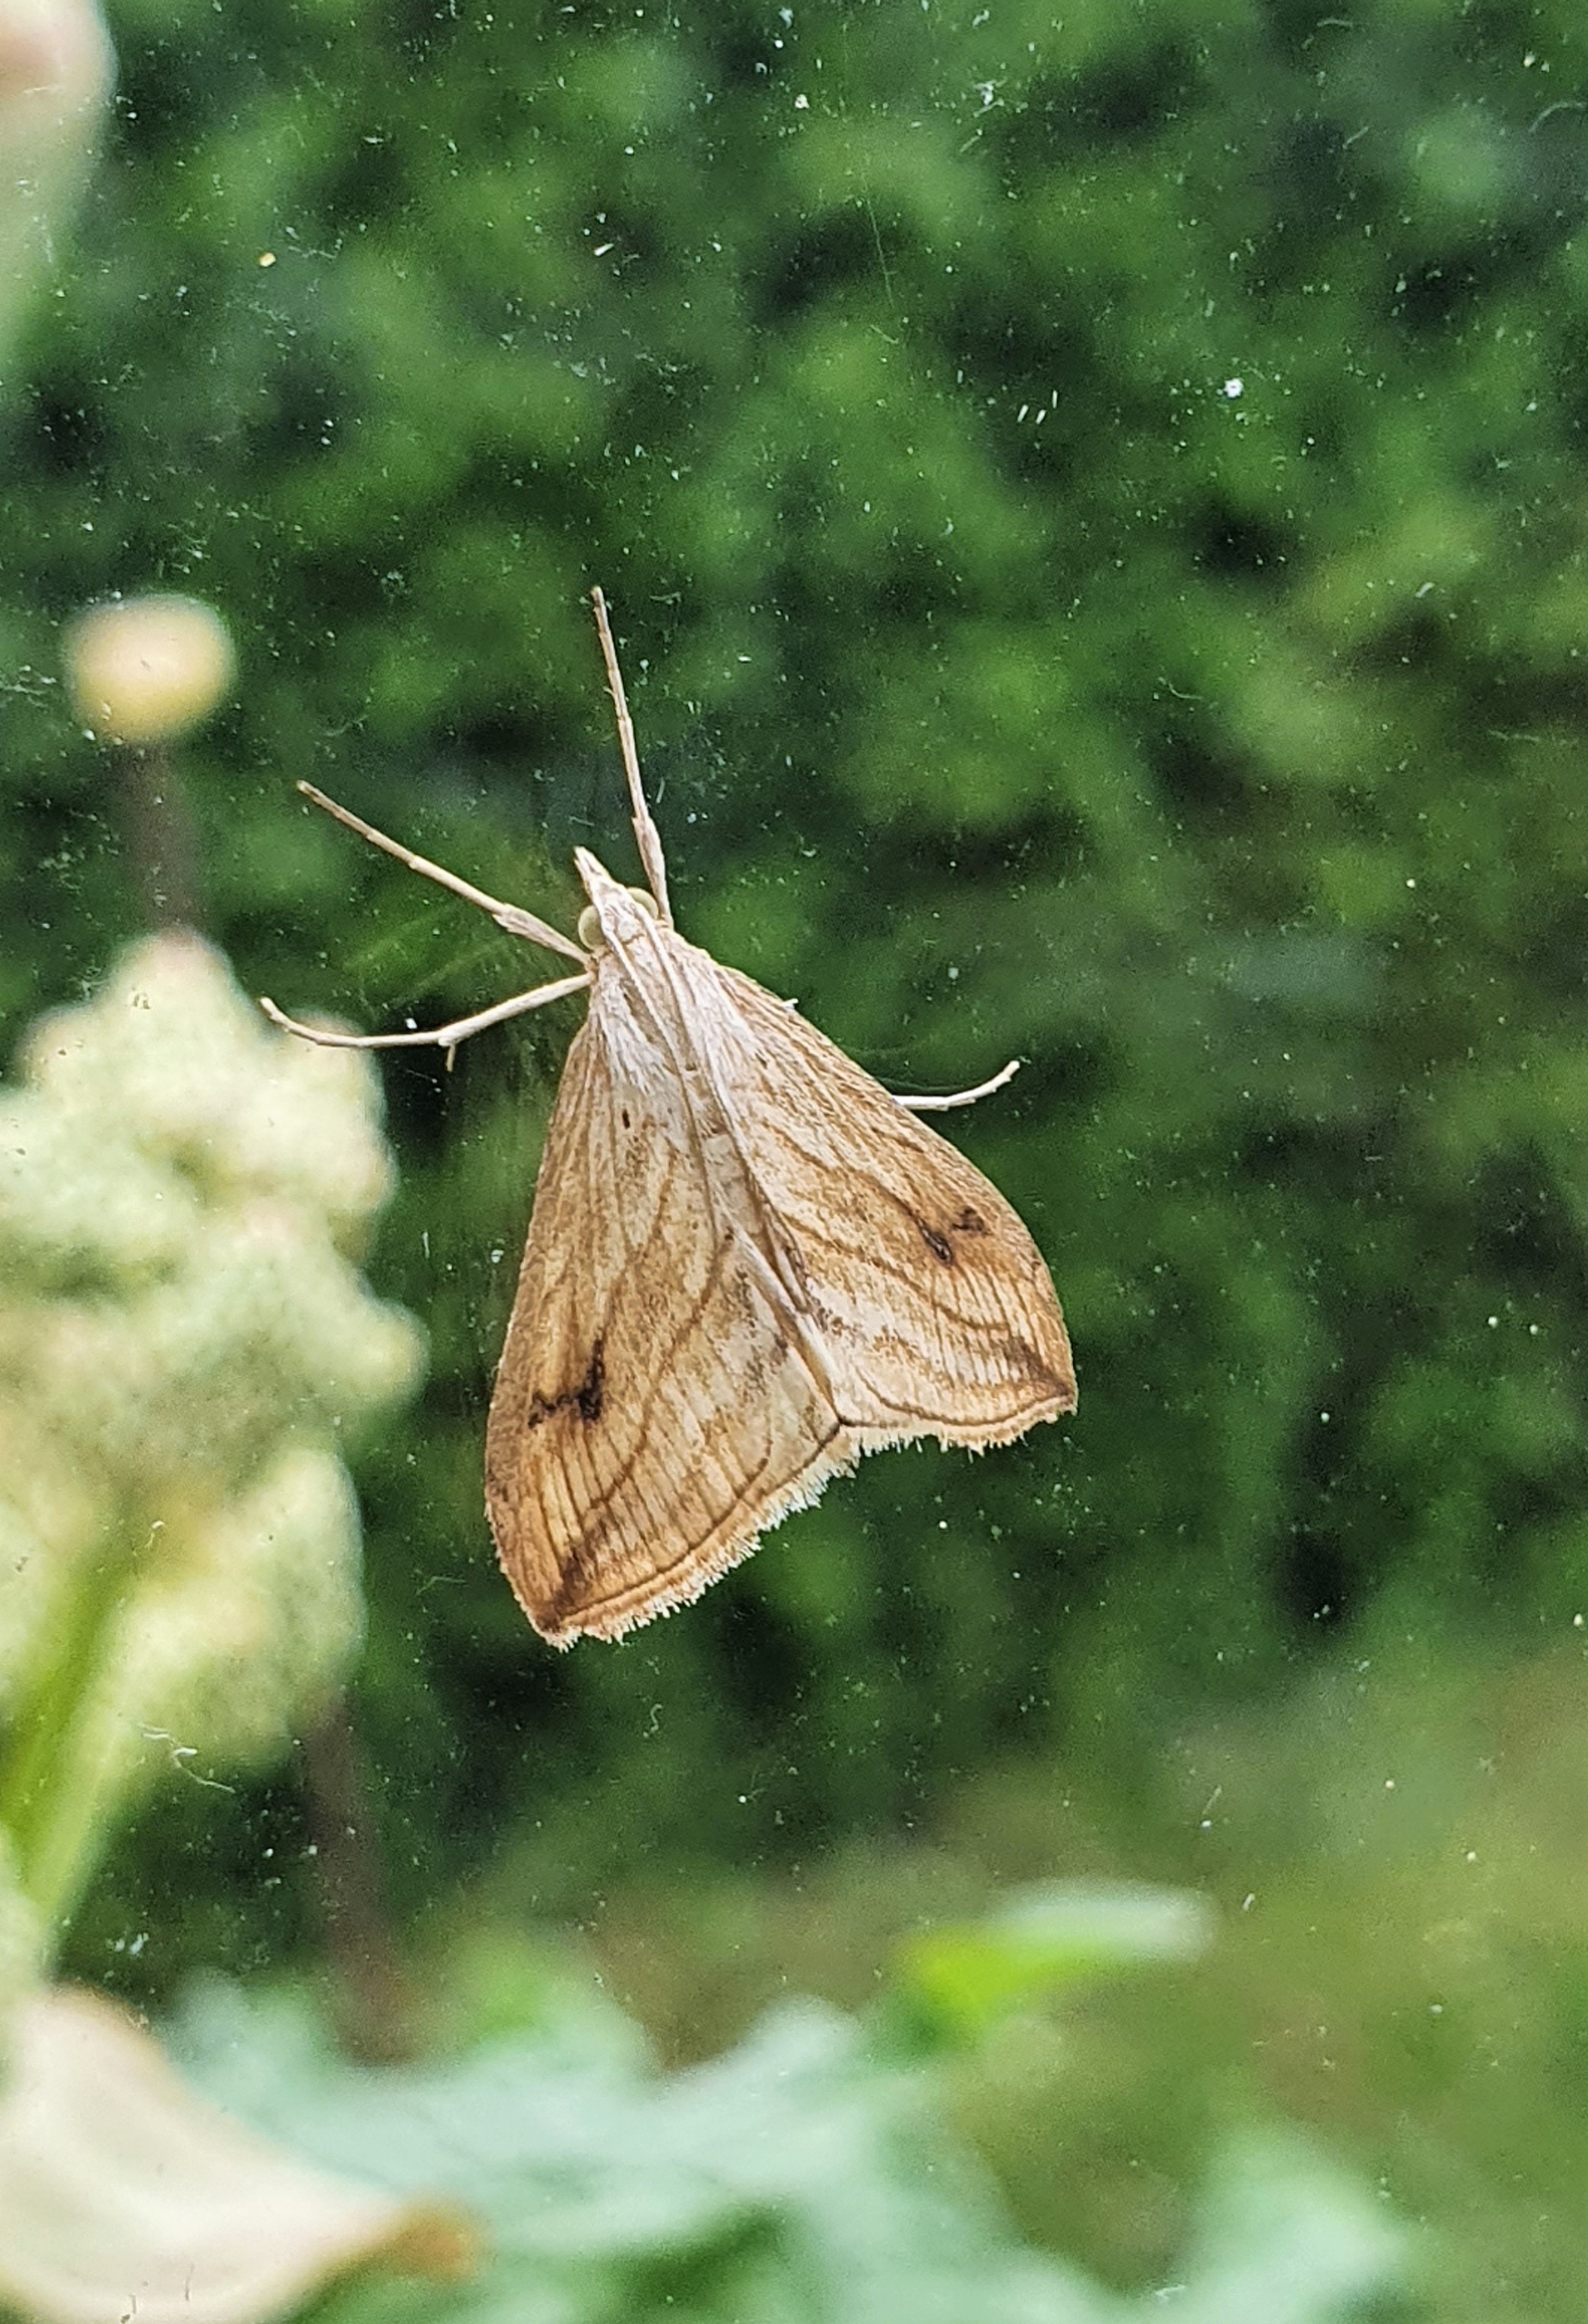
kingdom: Animalia
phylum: Arthropoda
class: Insecta
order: Lepidoptera
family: Crambidae
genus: Evergestis
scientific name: Evergestis forficalis
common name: Kålhalvmøl
